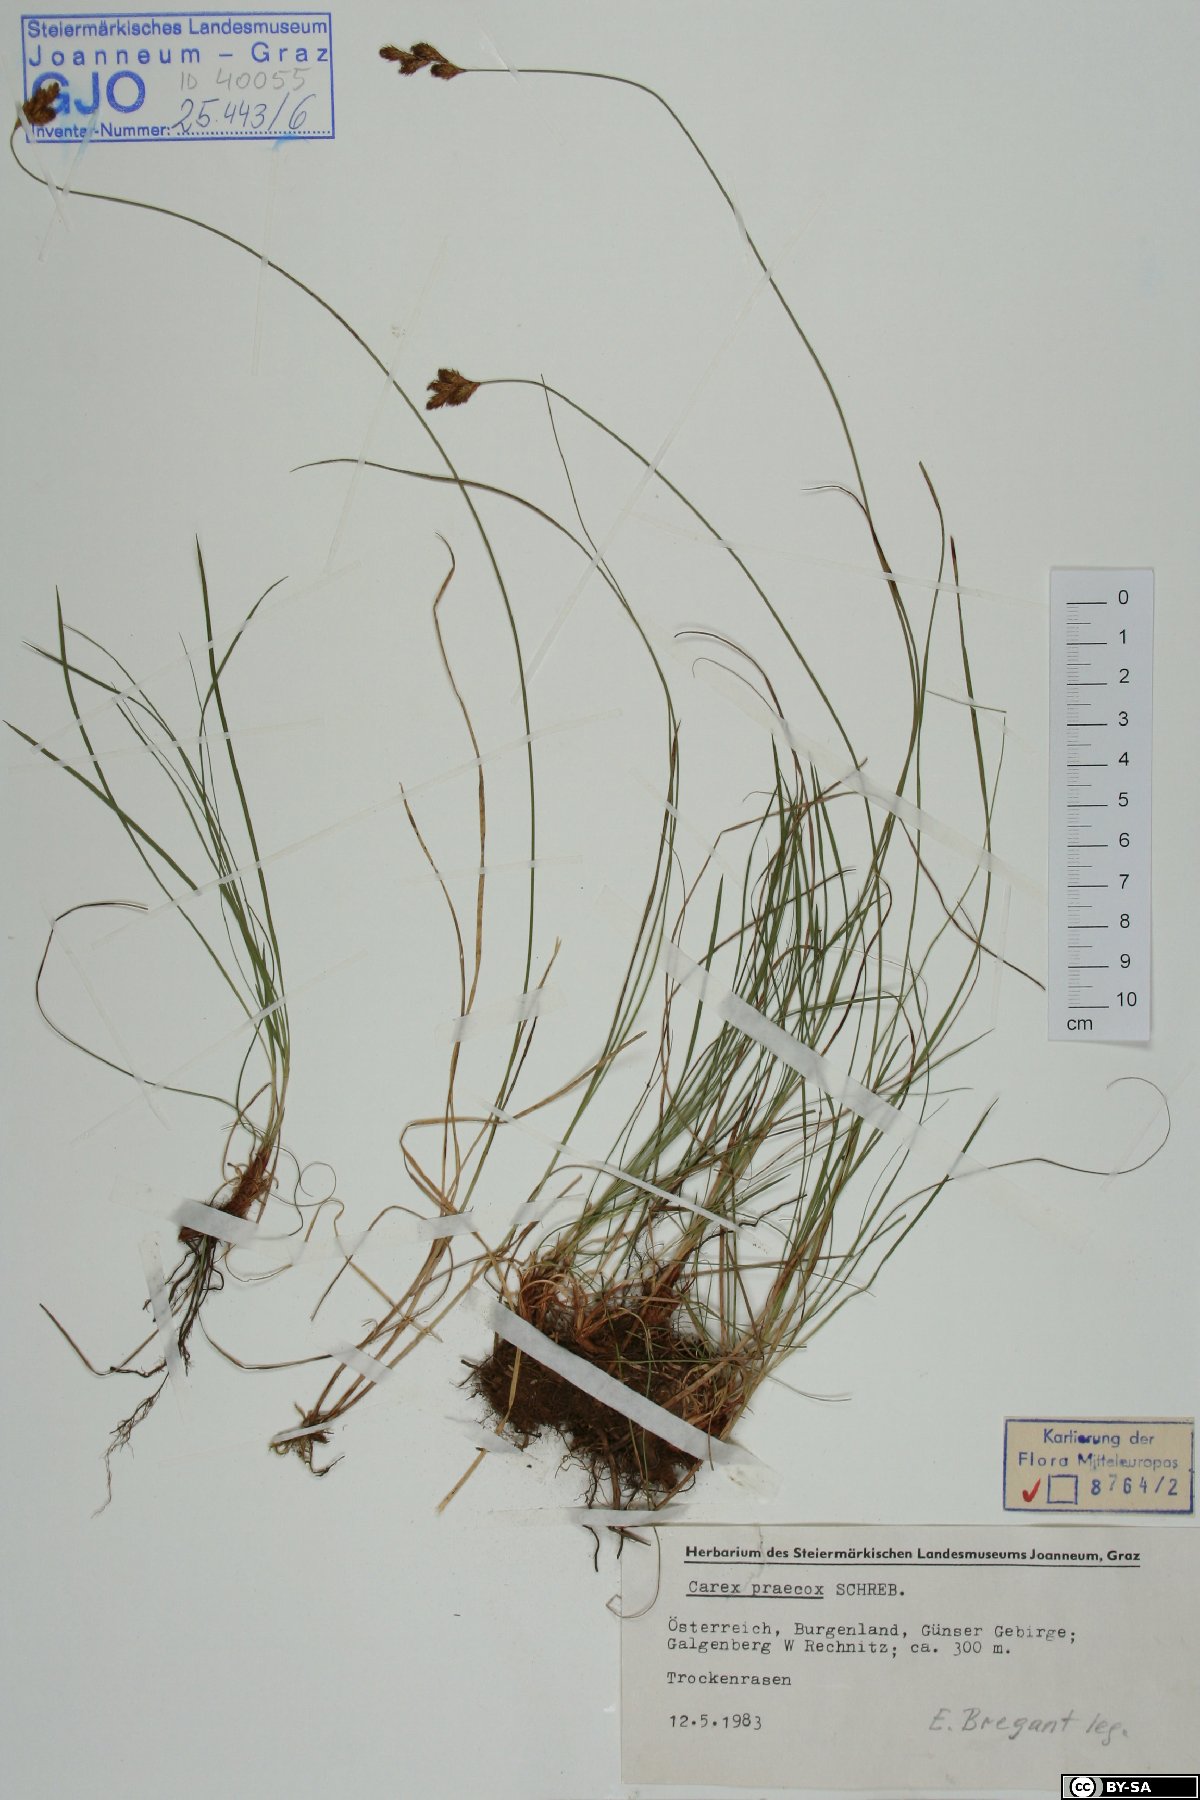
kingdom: Plantae
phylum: Tracheophyta
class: Liliopsida
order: Poales
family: Cyperaceae
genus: Carex
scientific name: Carex praecox
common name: Early sedge
